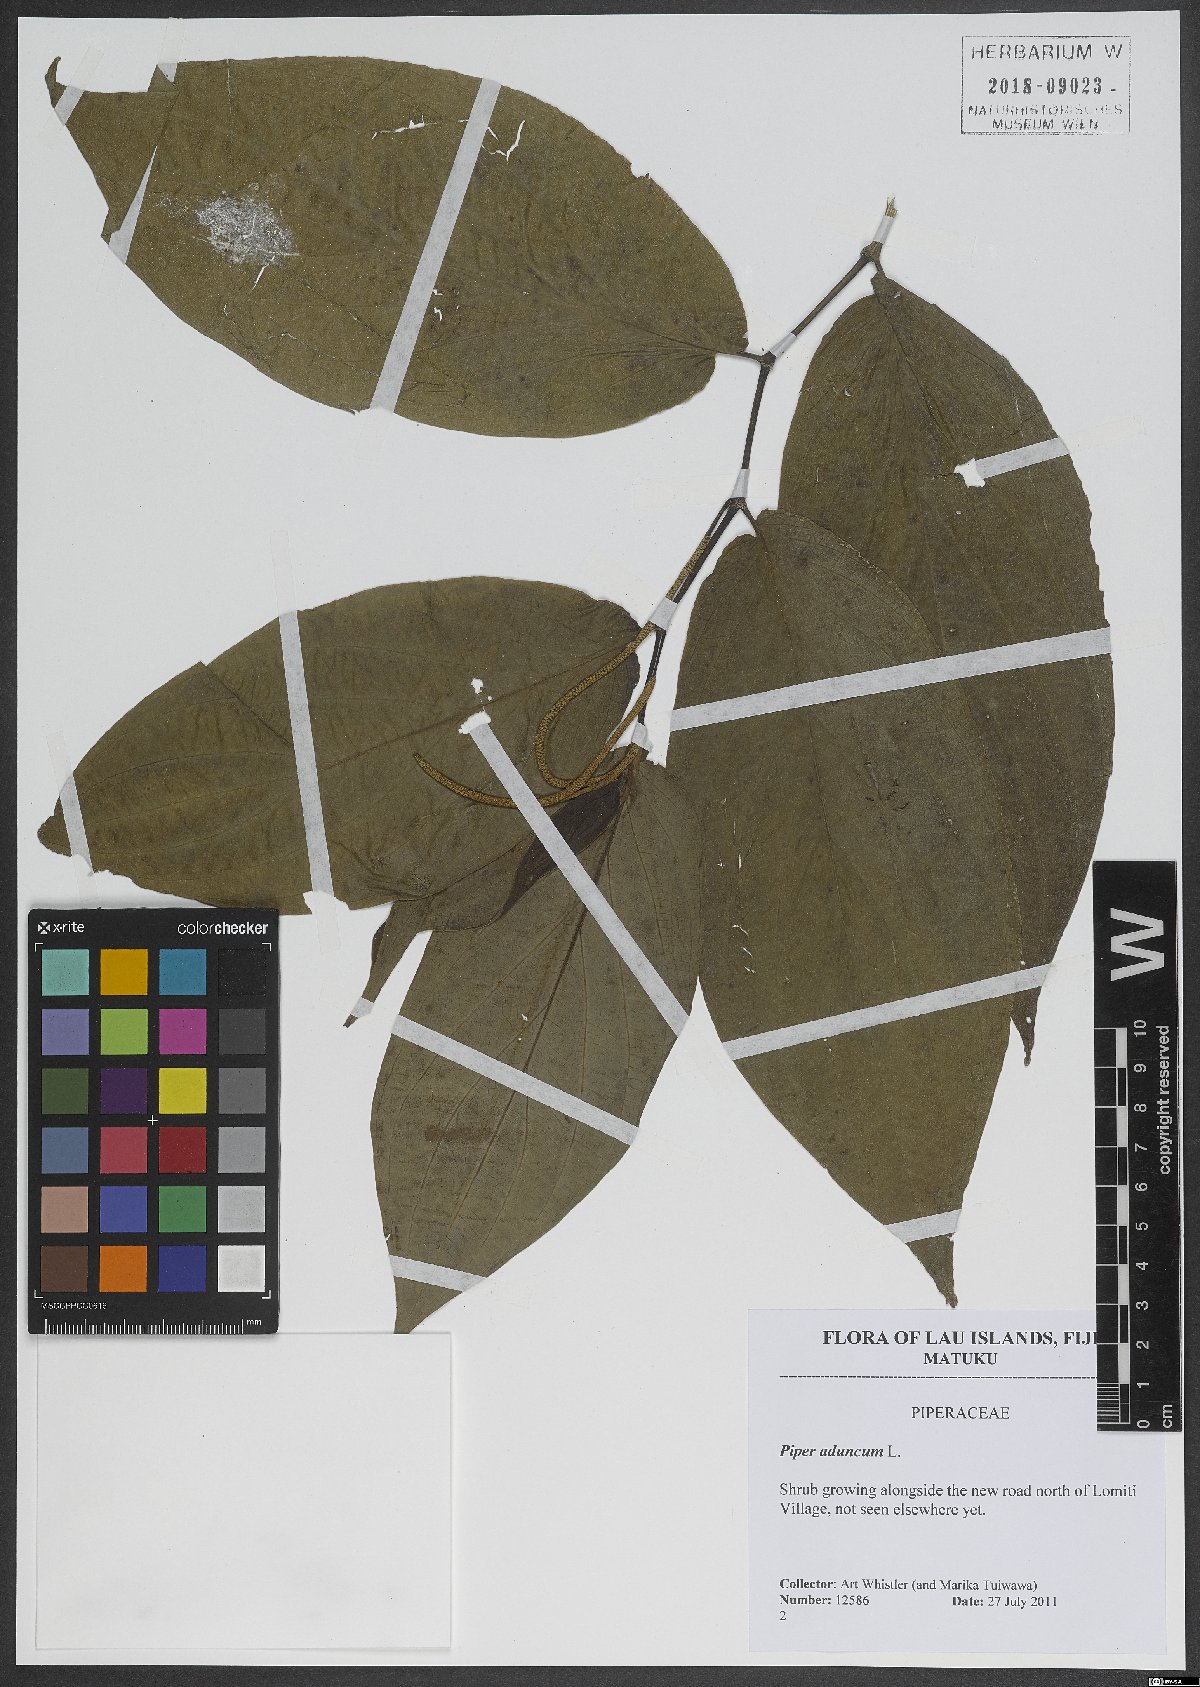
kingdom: Plantae
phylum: Tracheophyta
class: Magnoliopsida
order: Piperales
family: Piperaceae
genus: Piper
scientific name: Piper aduncum
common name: Spiked pepper
